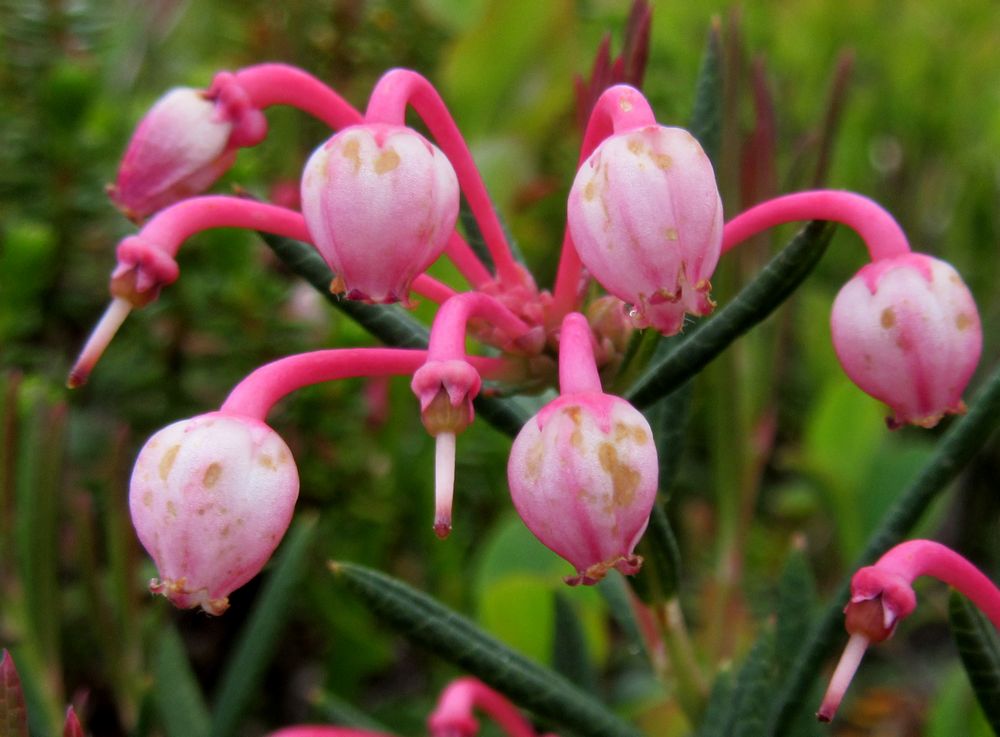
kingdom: Plantae
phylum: Tracheophyta
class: Magnoliopsida
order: Ericales
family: Ericaceae
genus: Andromeda
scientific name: Andromeda polifolia
